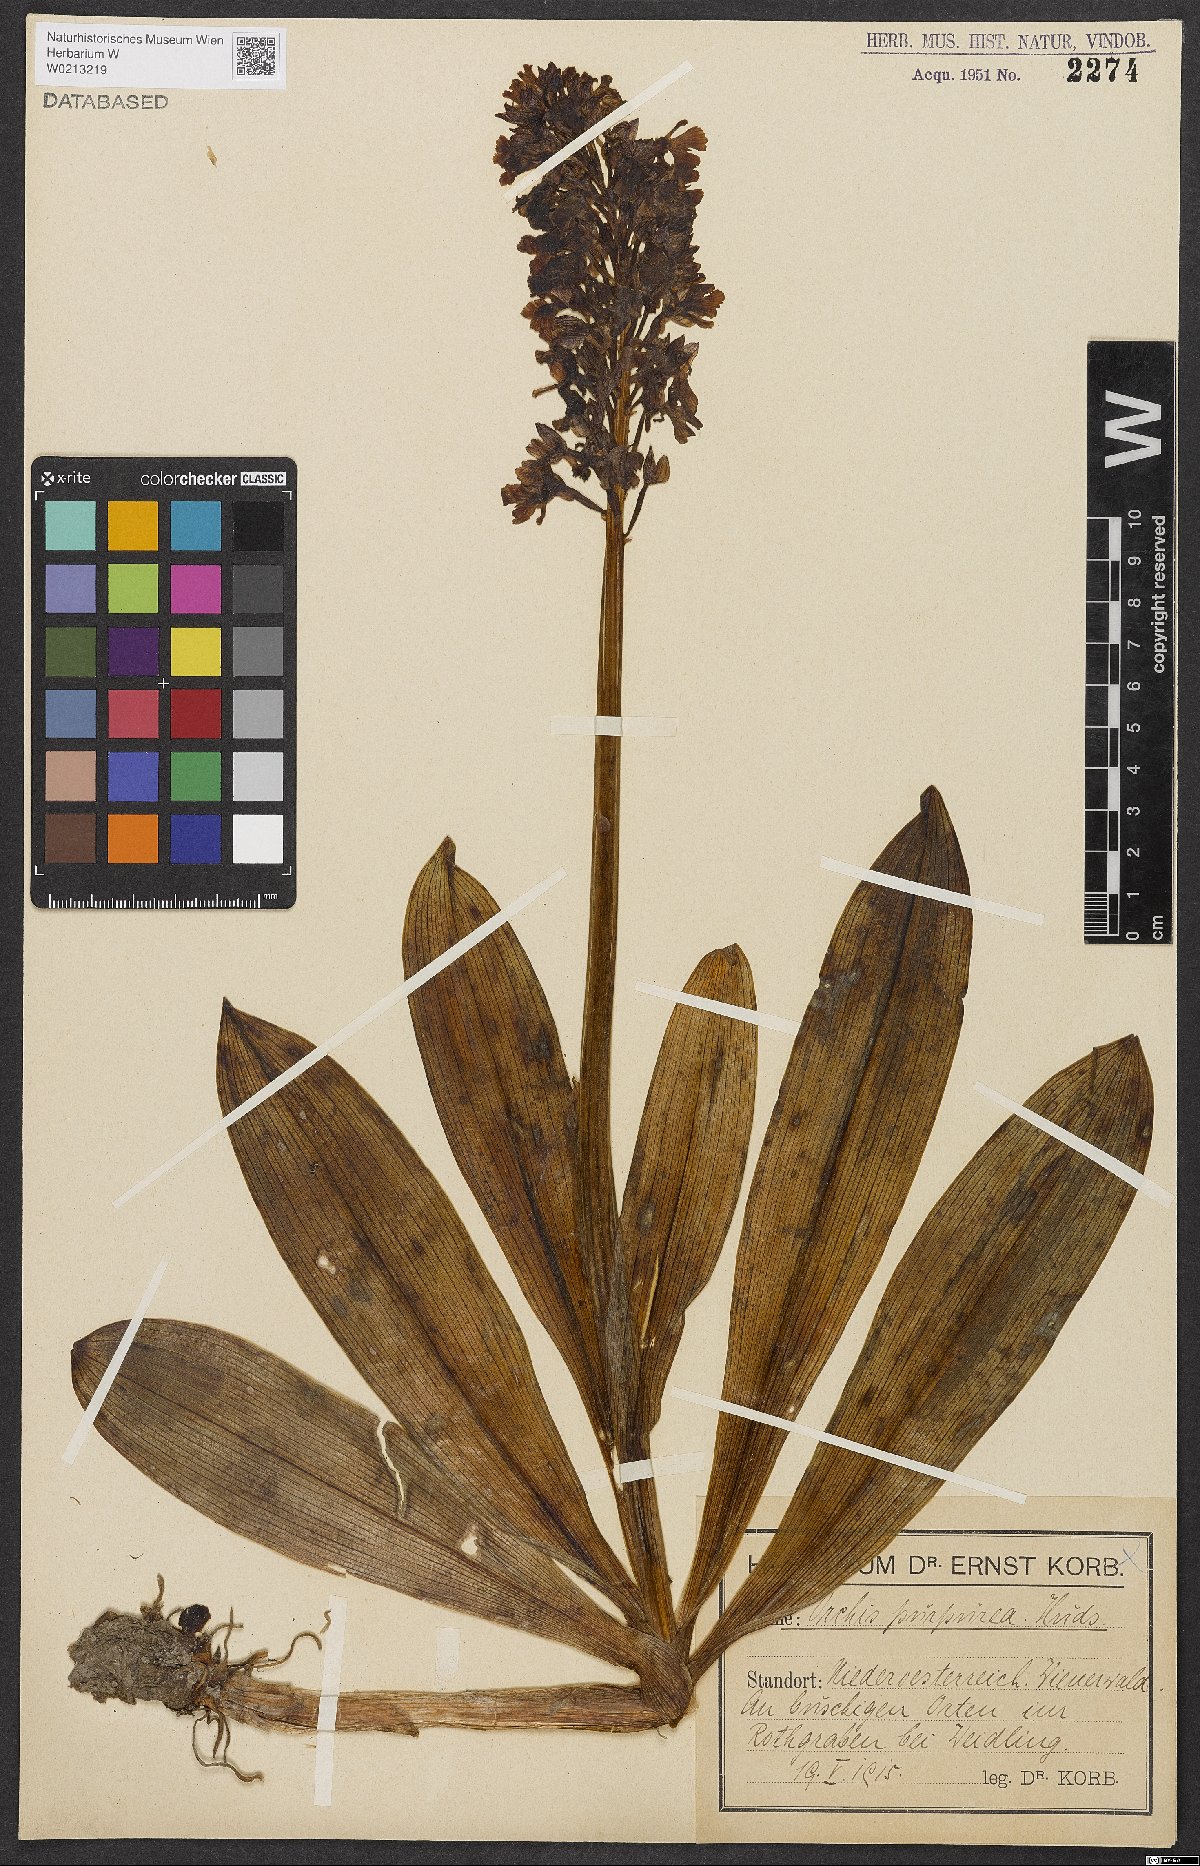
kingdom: Plantae
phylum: Tracheophyta
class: Liliopsida
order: Asparagales
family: Orchidaceae
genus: Orchis
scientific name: Orchis purpurea
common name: Lady orchid
